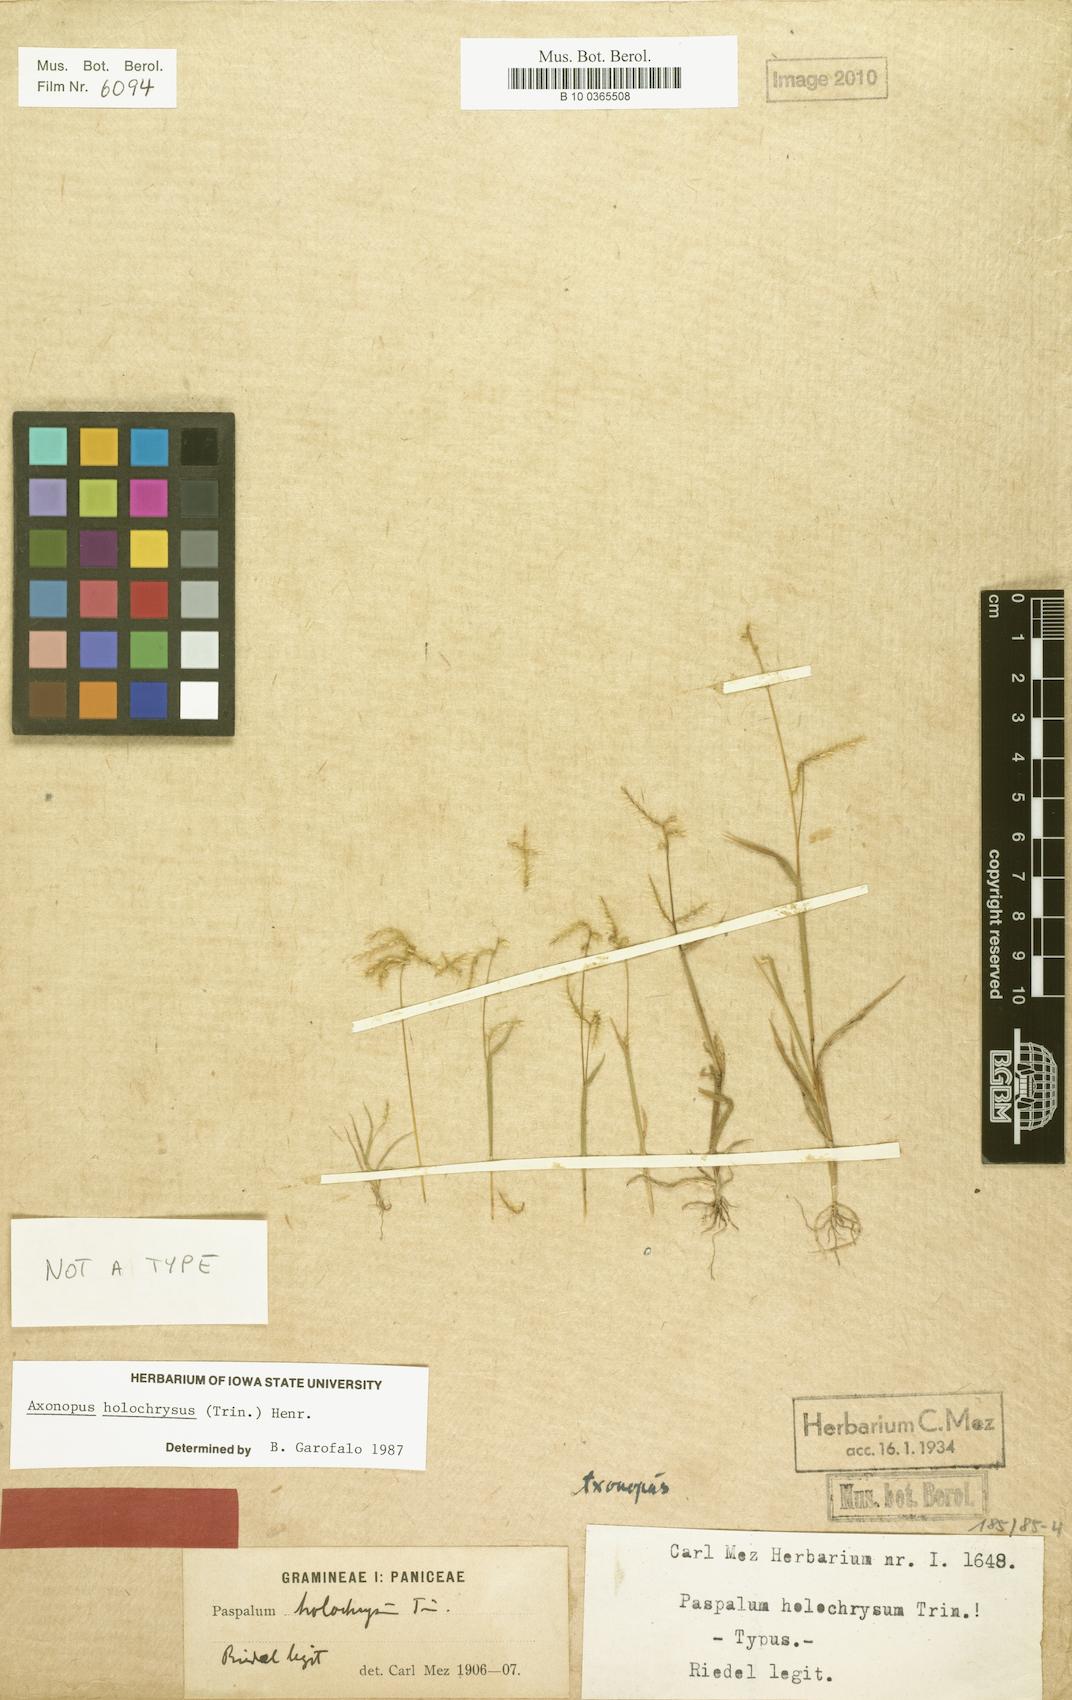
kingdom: Plantae
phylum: Tracheophyta
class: Liliopsida
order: Poales
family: Poaceae
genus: Axonopus
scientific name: Axonopus aureus
